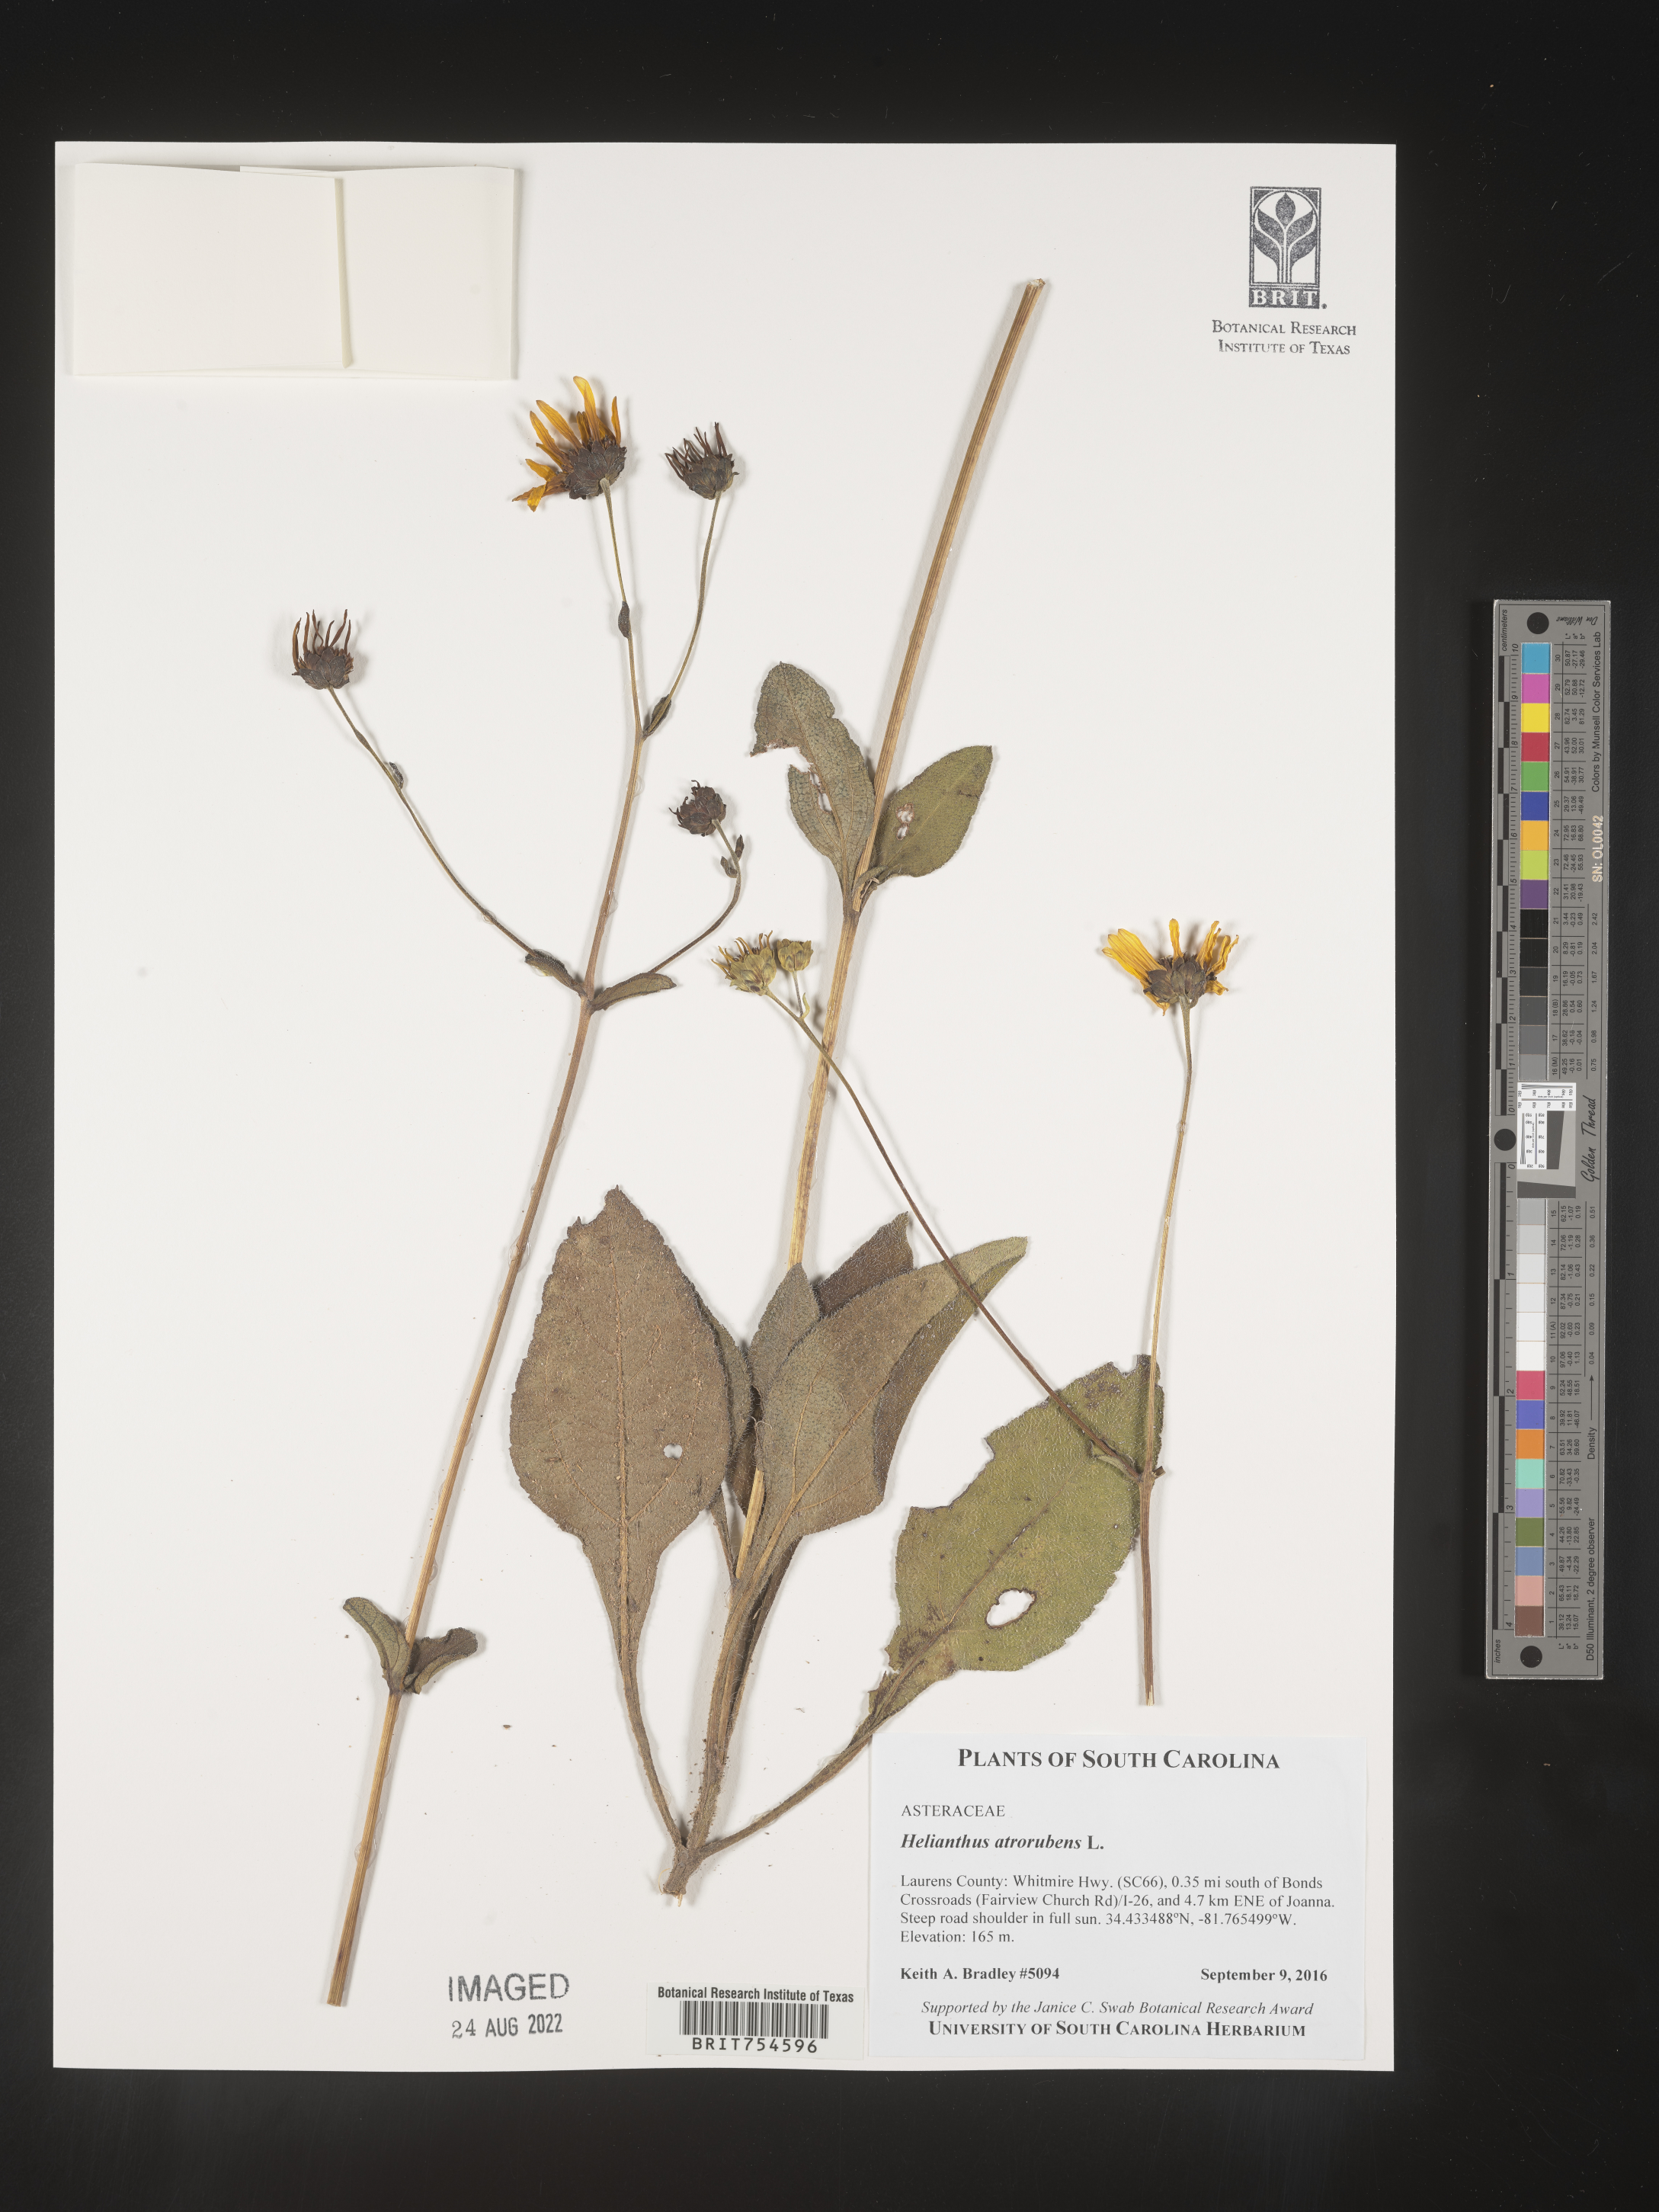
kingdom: Plantae
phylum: Tracheophyta
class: Magnoliopsida
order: Asterales
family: Asteraceae
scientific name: Asteraceae
